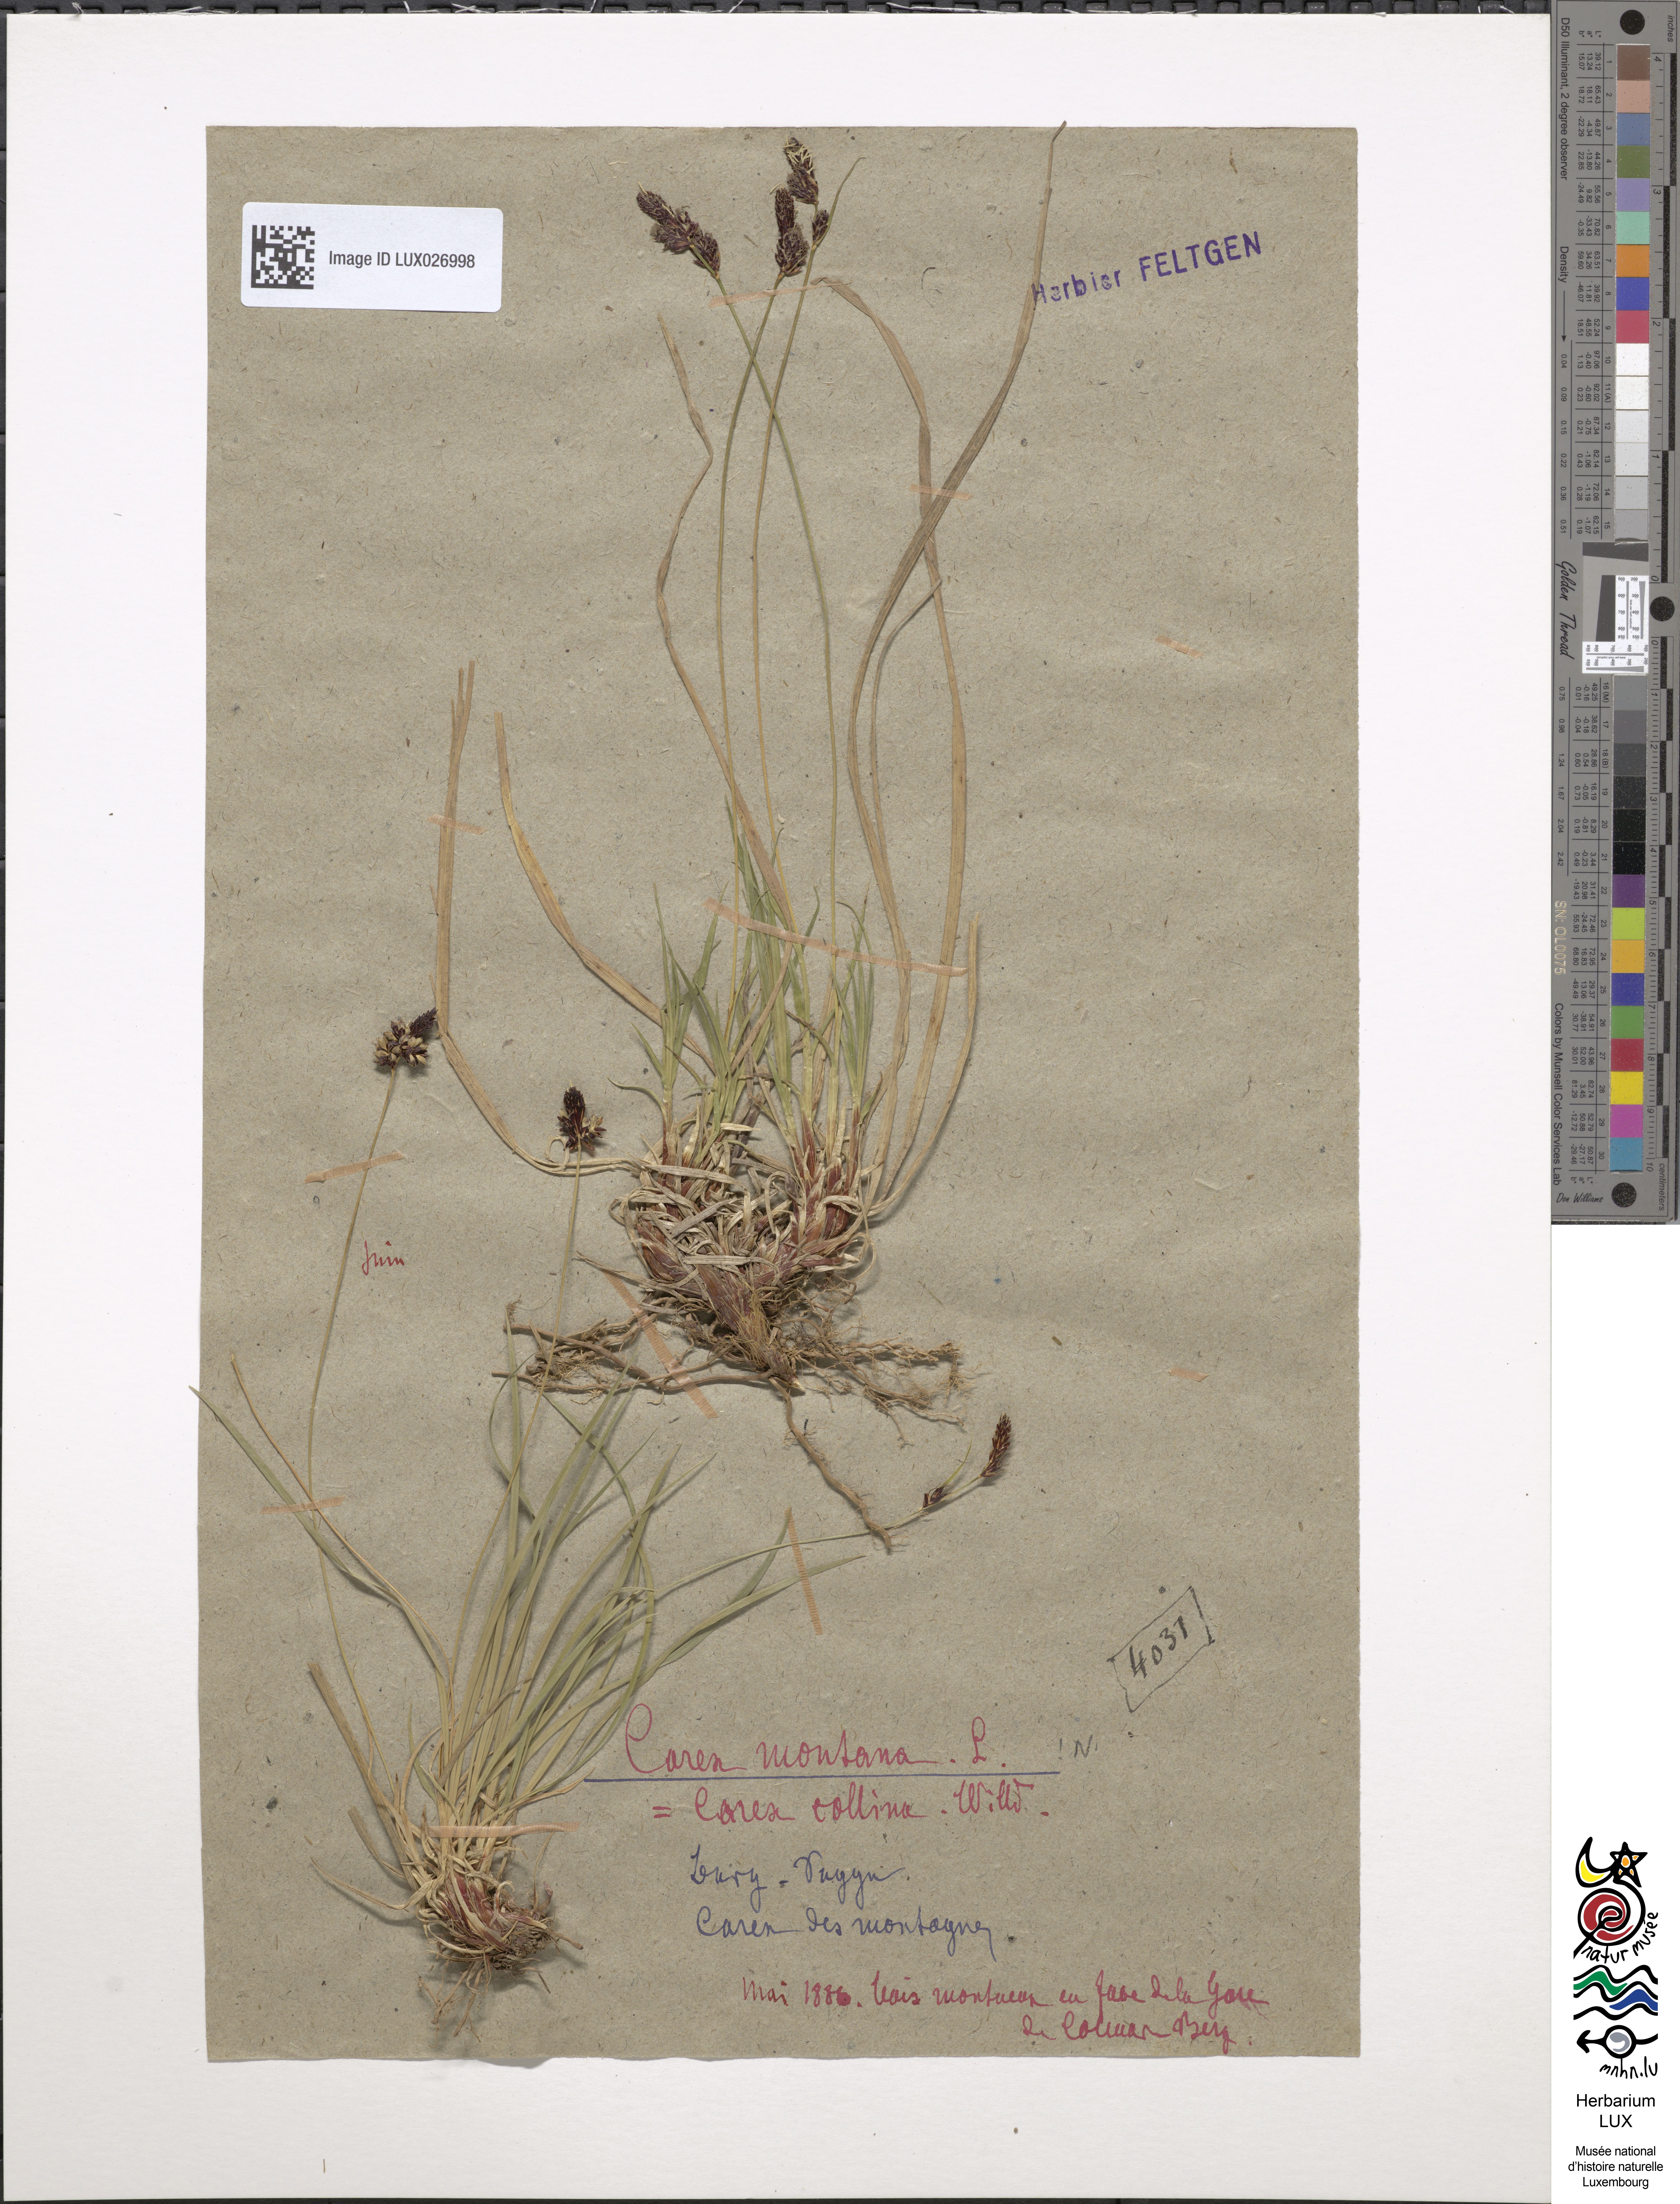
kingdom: Plantae
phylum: Tracheophyta
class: Liliopsida
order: Poales
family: Cyperaceae
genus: Carex
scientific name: Carex montana
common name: Soft-leaved sedge
